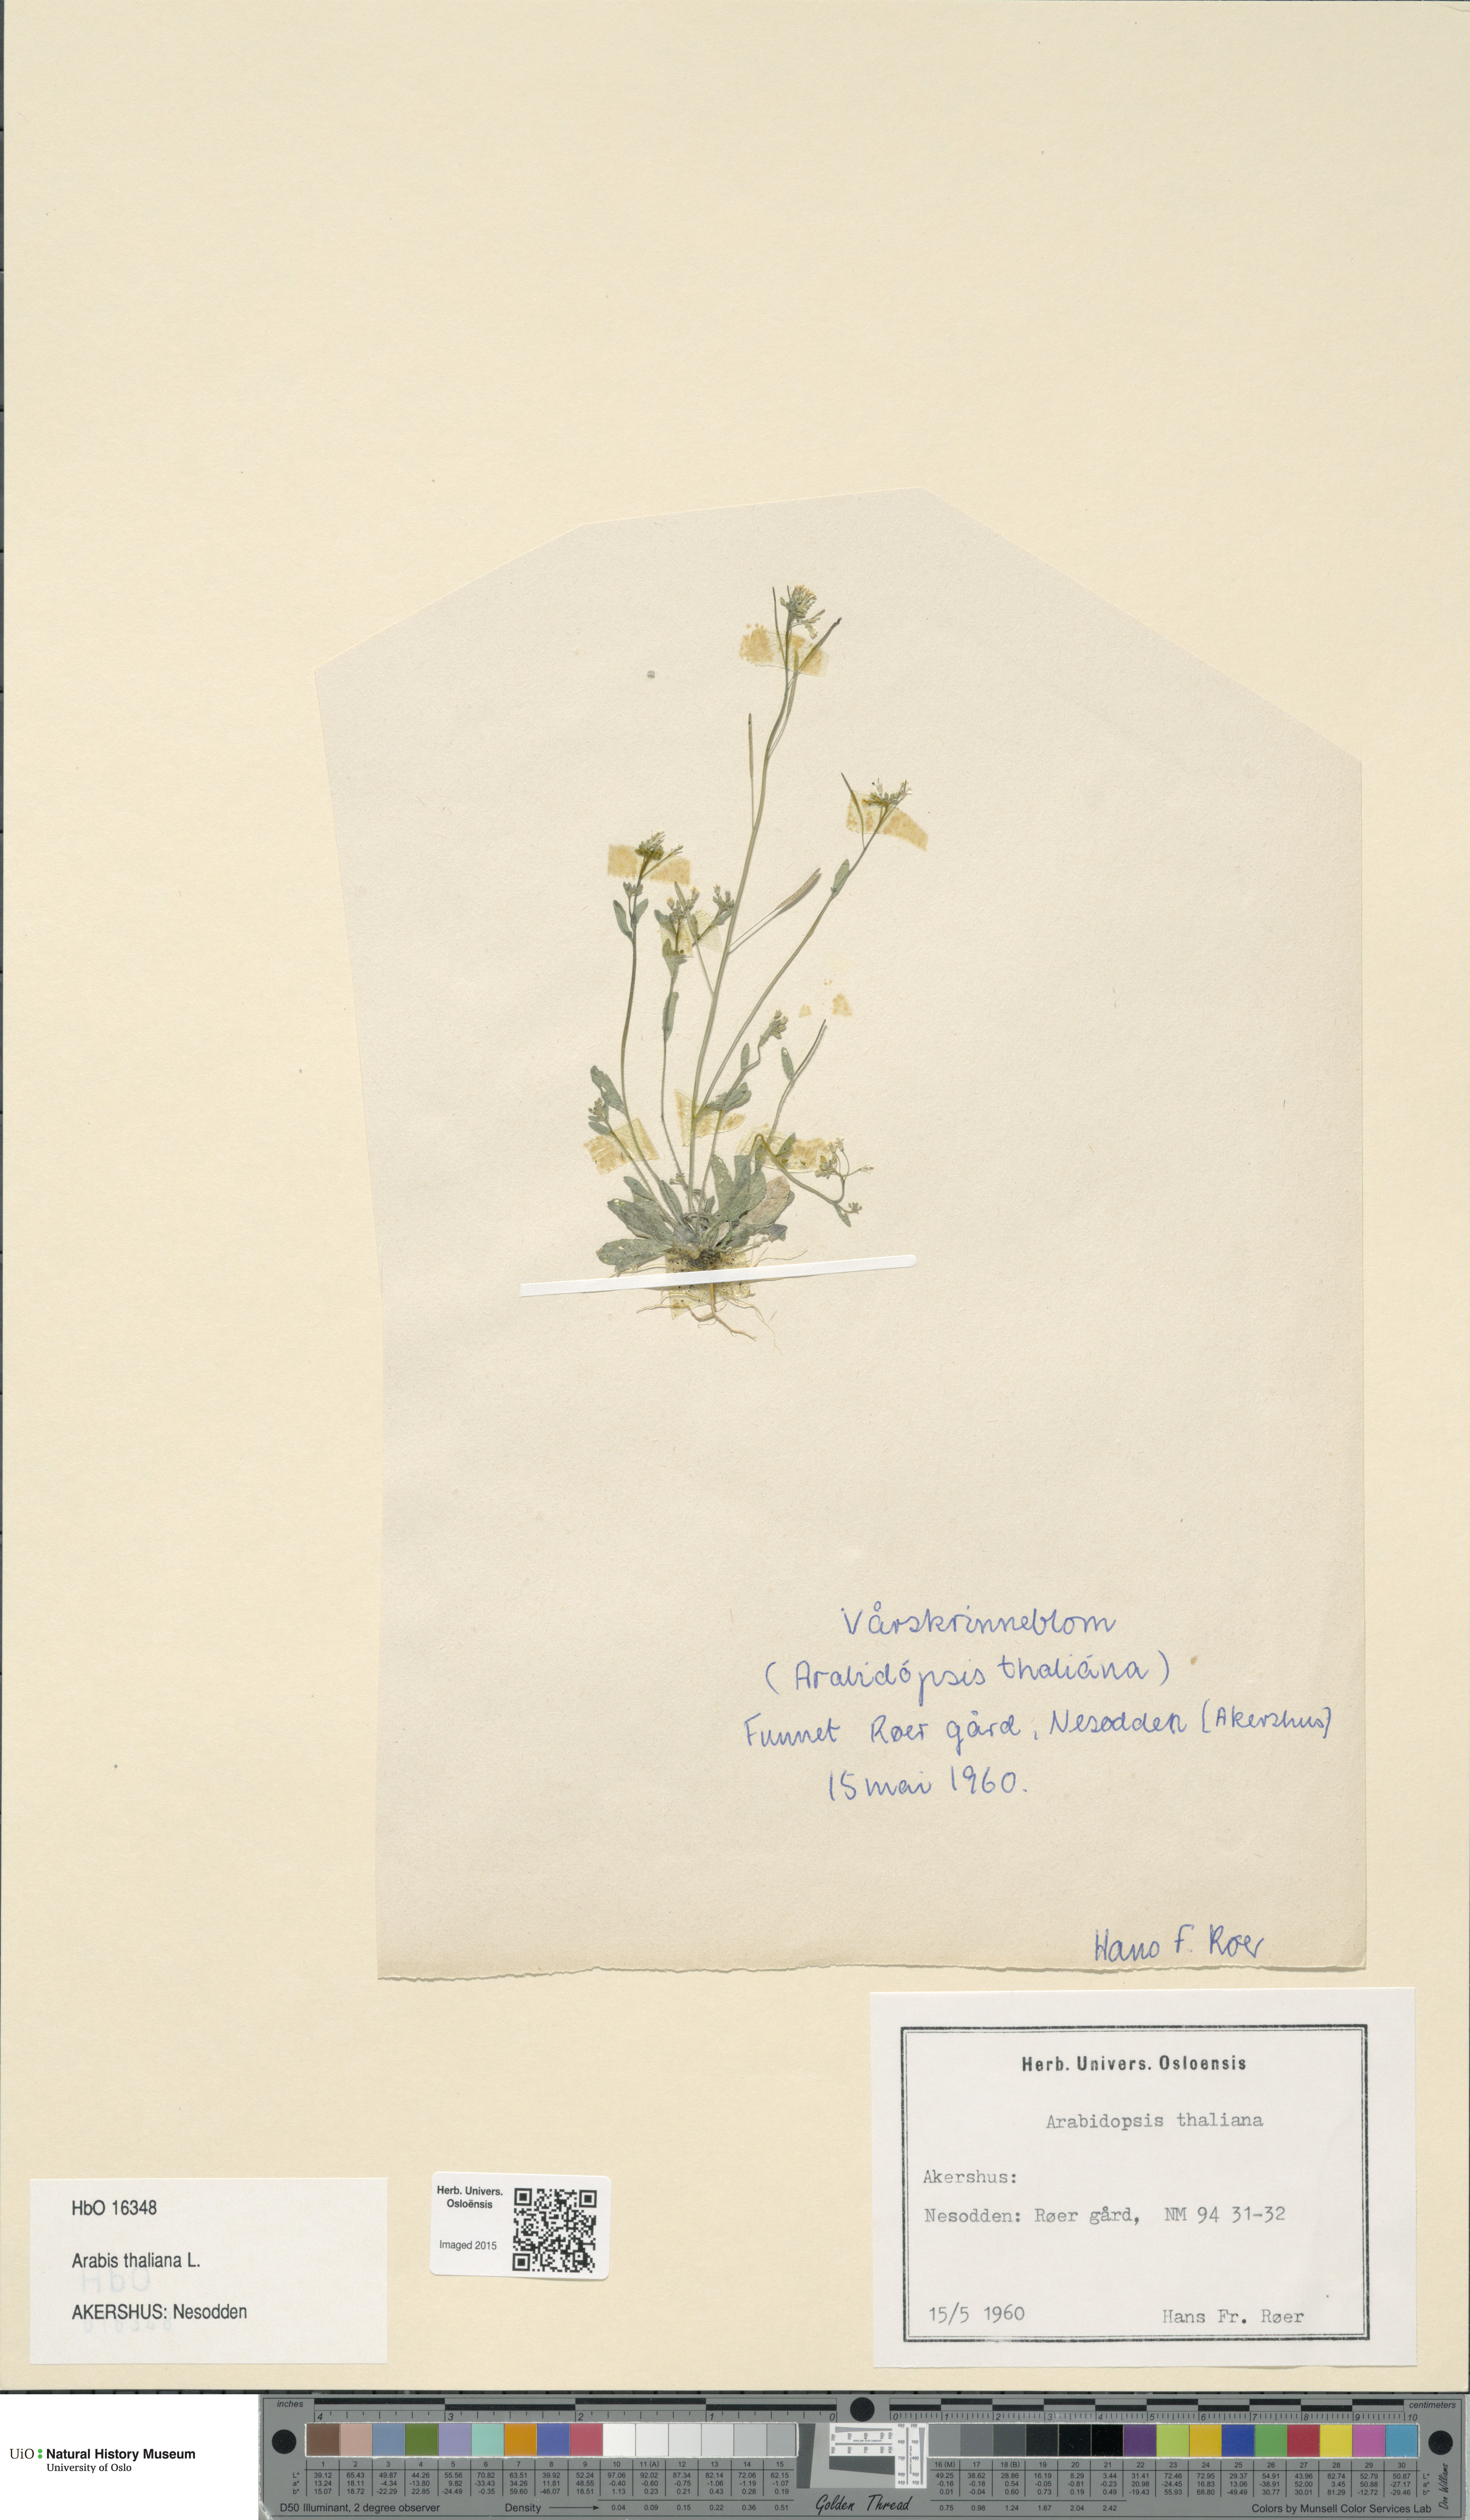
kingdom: Plantae
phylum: Tracheophyta
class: Magnoliopsida
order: Brassicales
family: Brassicaceae
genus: Arabidopsis
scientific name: Arabidopsis thaliana
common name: Thale cress
